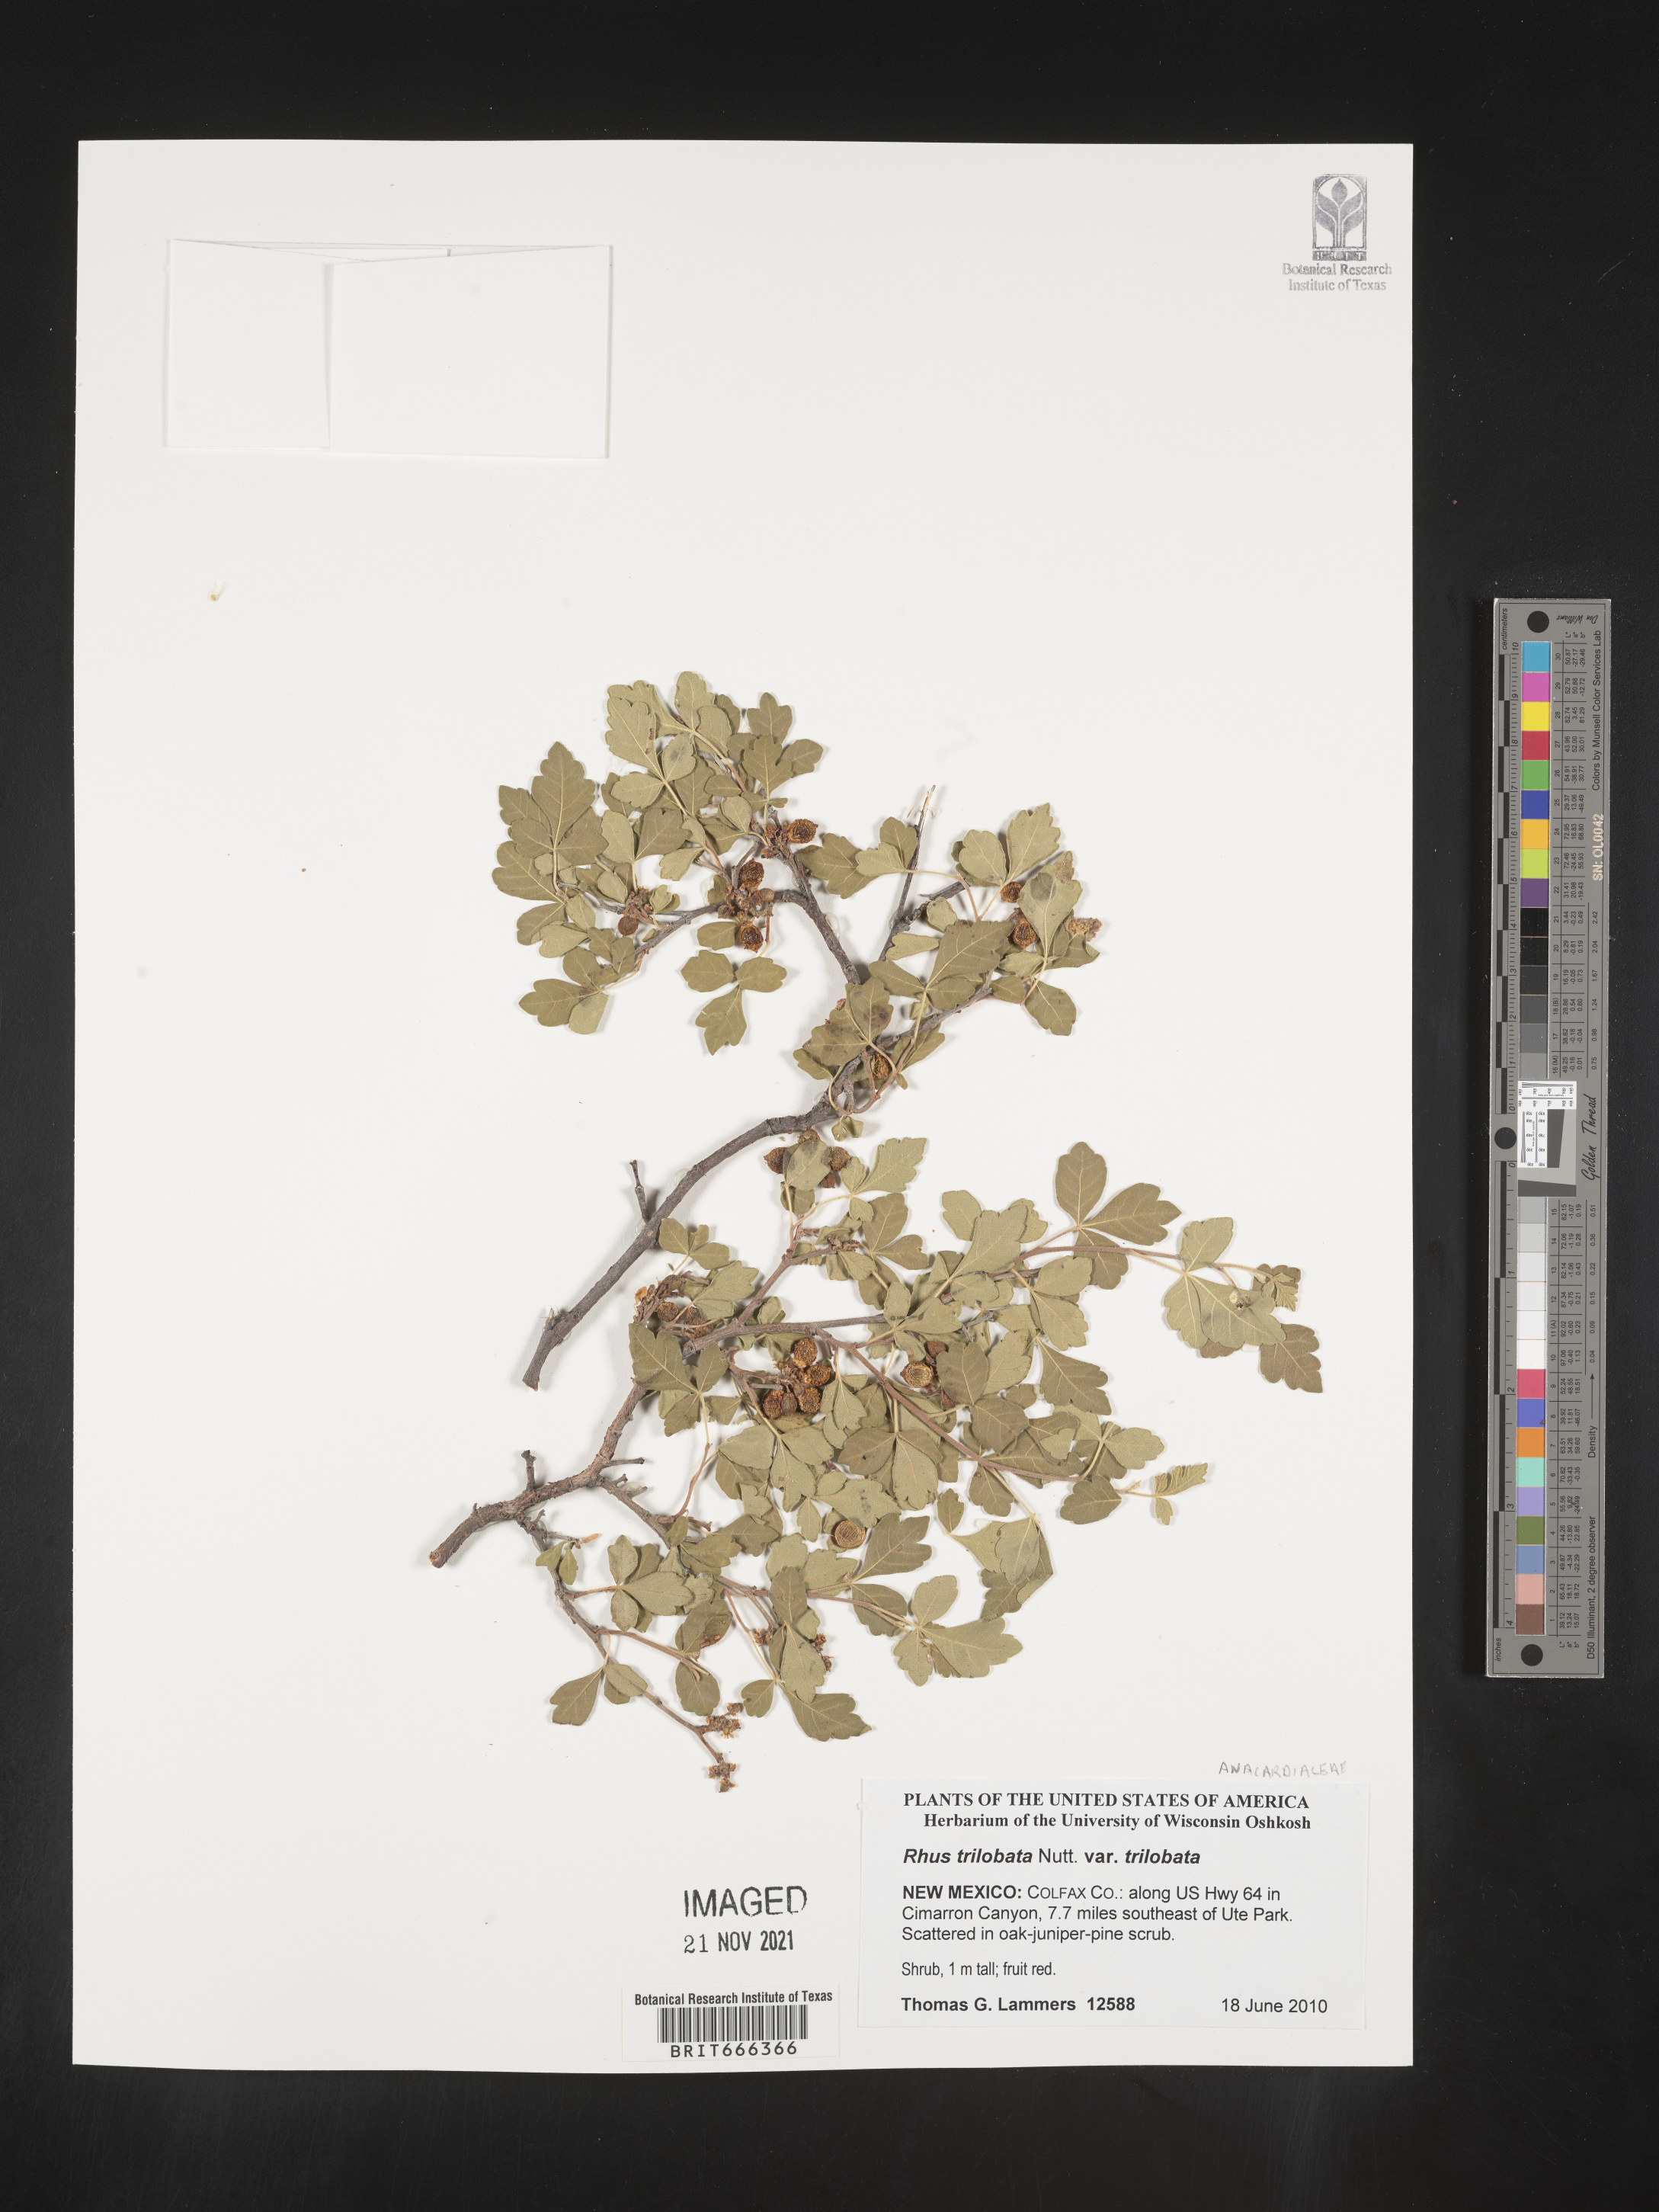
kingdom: Plantae
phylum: Tracheophyta
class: Magnoliopsida
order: Sapindales
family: Anacardiaceae
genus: Rhus
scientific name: Rhus trilobata
